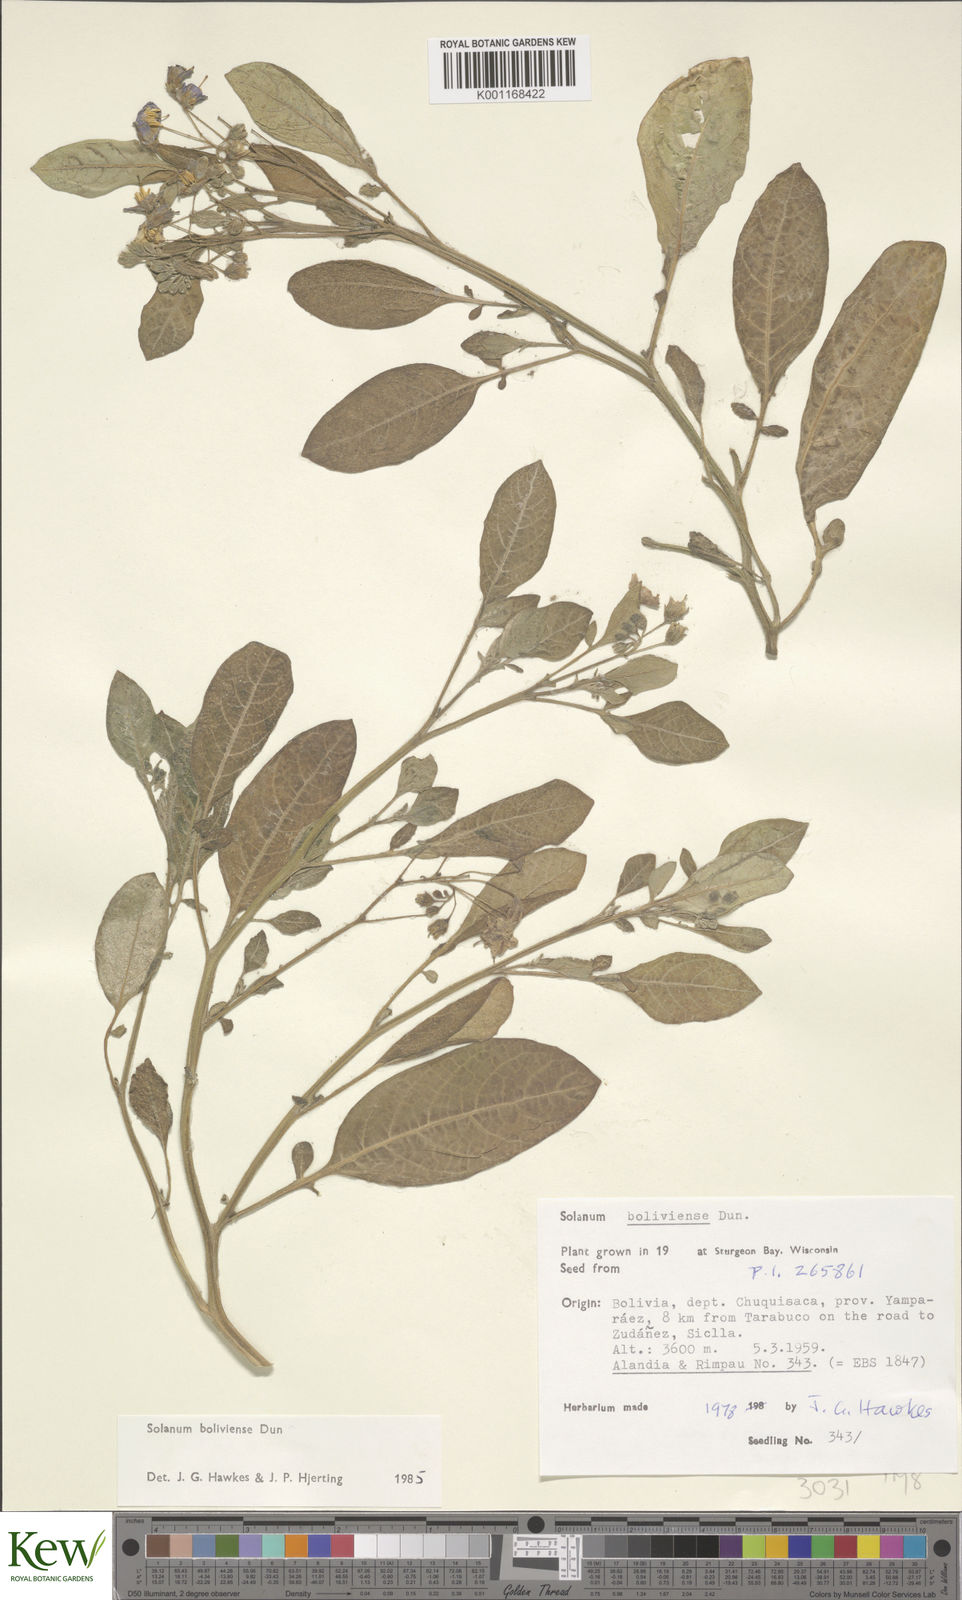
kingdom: Plantae
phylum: Tracheophyta
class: Magnoliopsida
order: Solanales
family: Solanaceae
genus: Solanum
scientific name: Solanum boliviense
